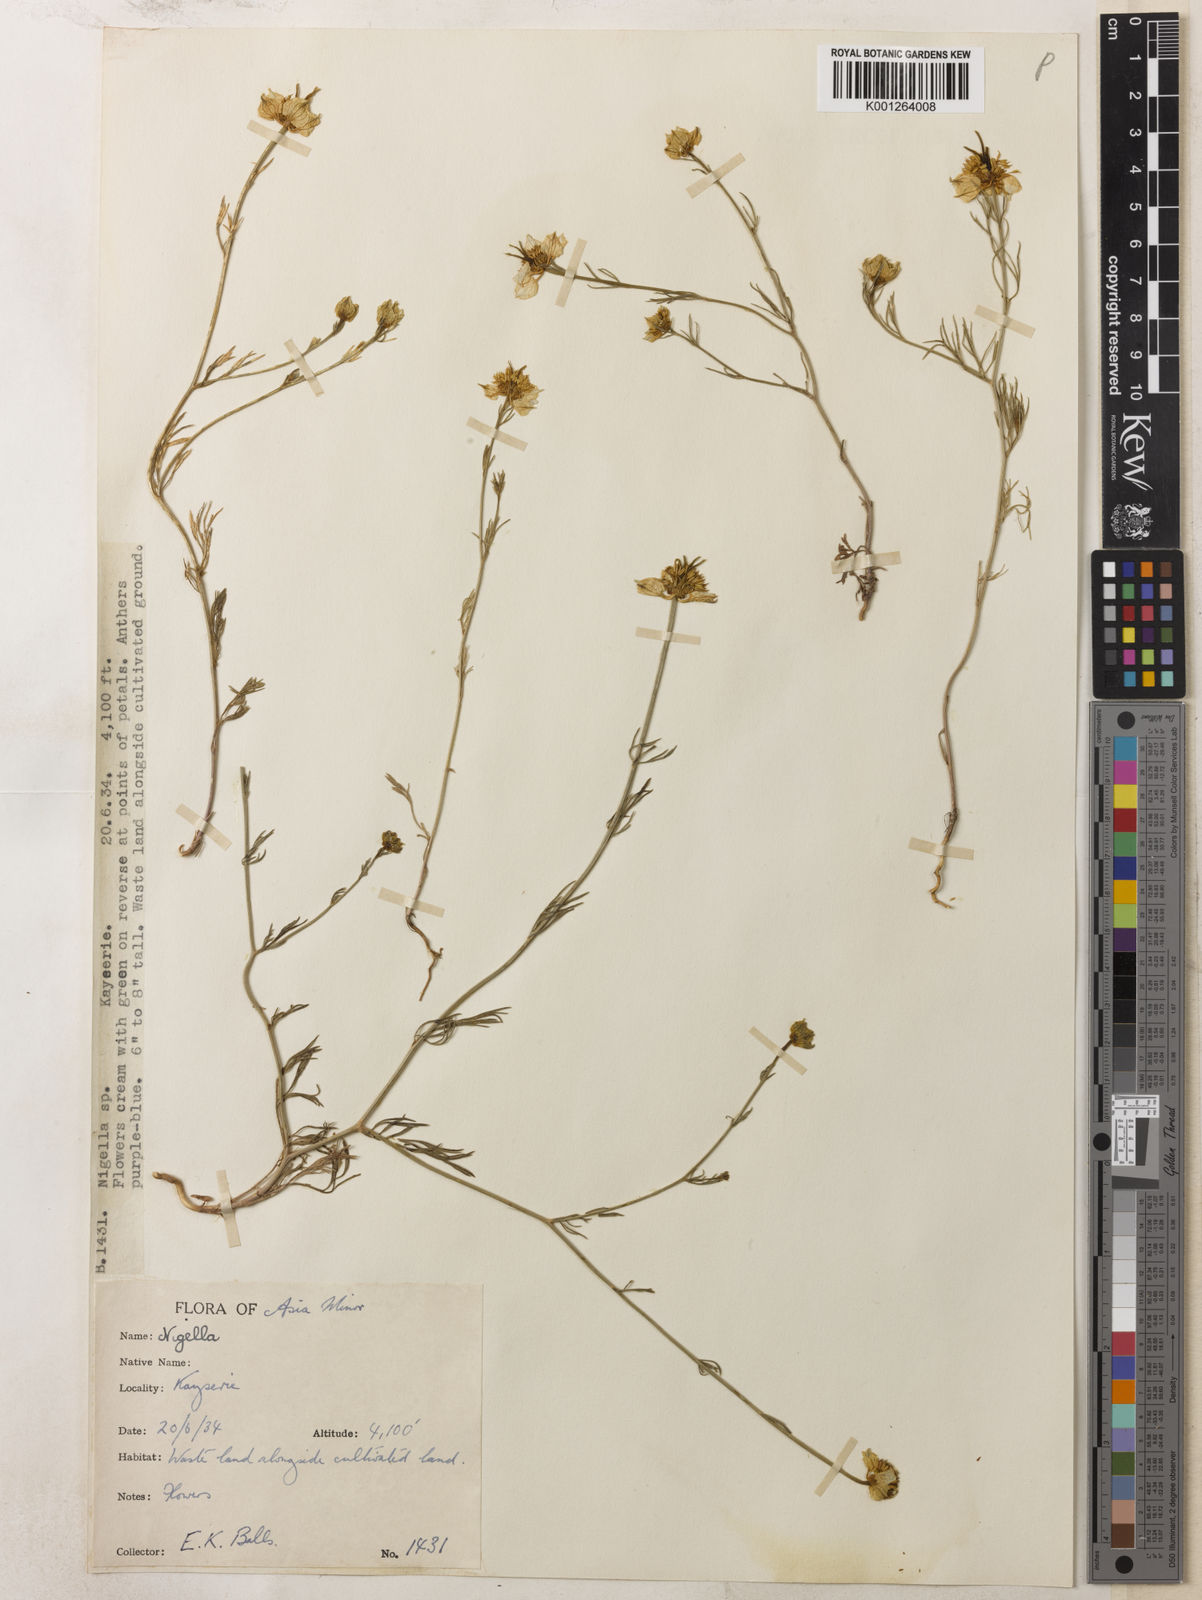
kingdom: Plantae
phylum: Tracheophyta
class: Magnoliopsida
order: Ranunculales
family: Ranunculaceae
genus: Nigella
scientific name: Nigella arvensis
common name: Wild fennel-flower
